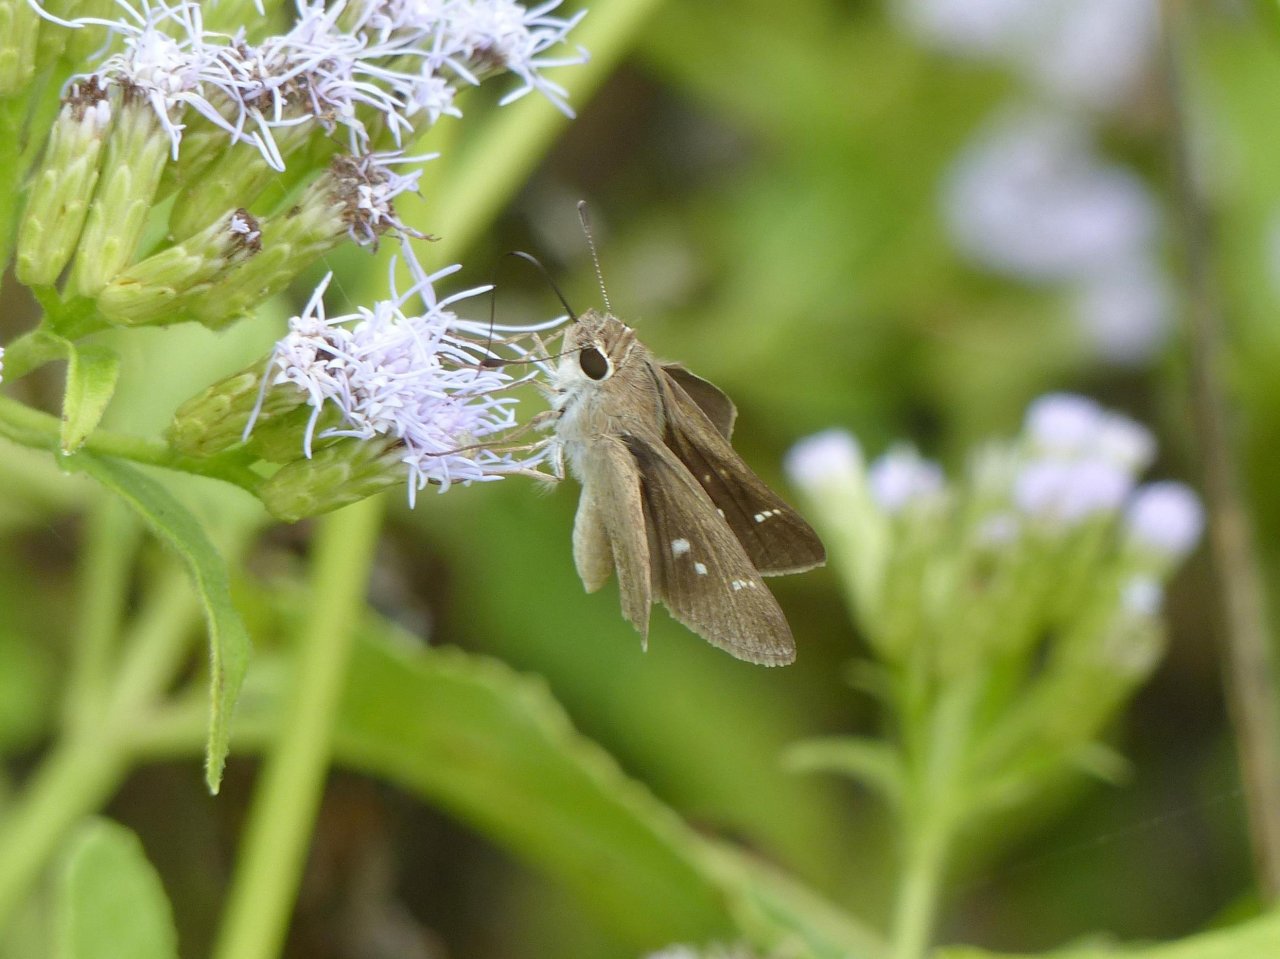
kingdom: Animalia
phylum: Arthropoda
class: Insecta
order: Lepidoptera
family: Hesperiidae
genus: Lerodea
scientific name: Lerodea eufala
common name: Eufala Skipper
